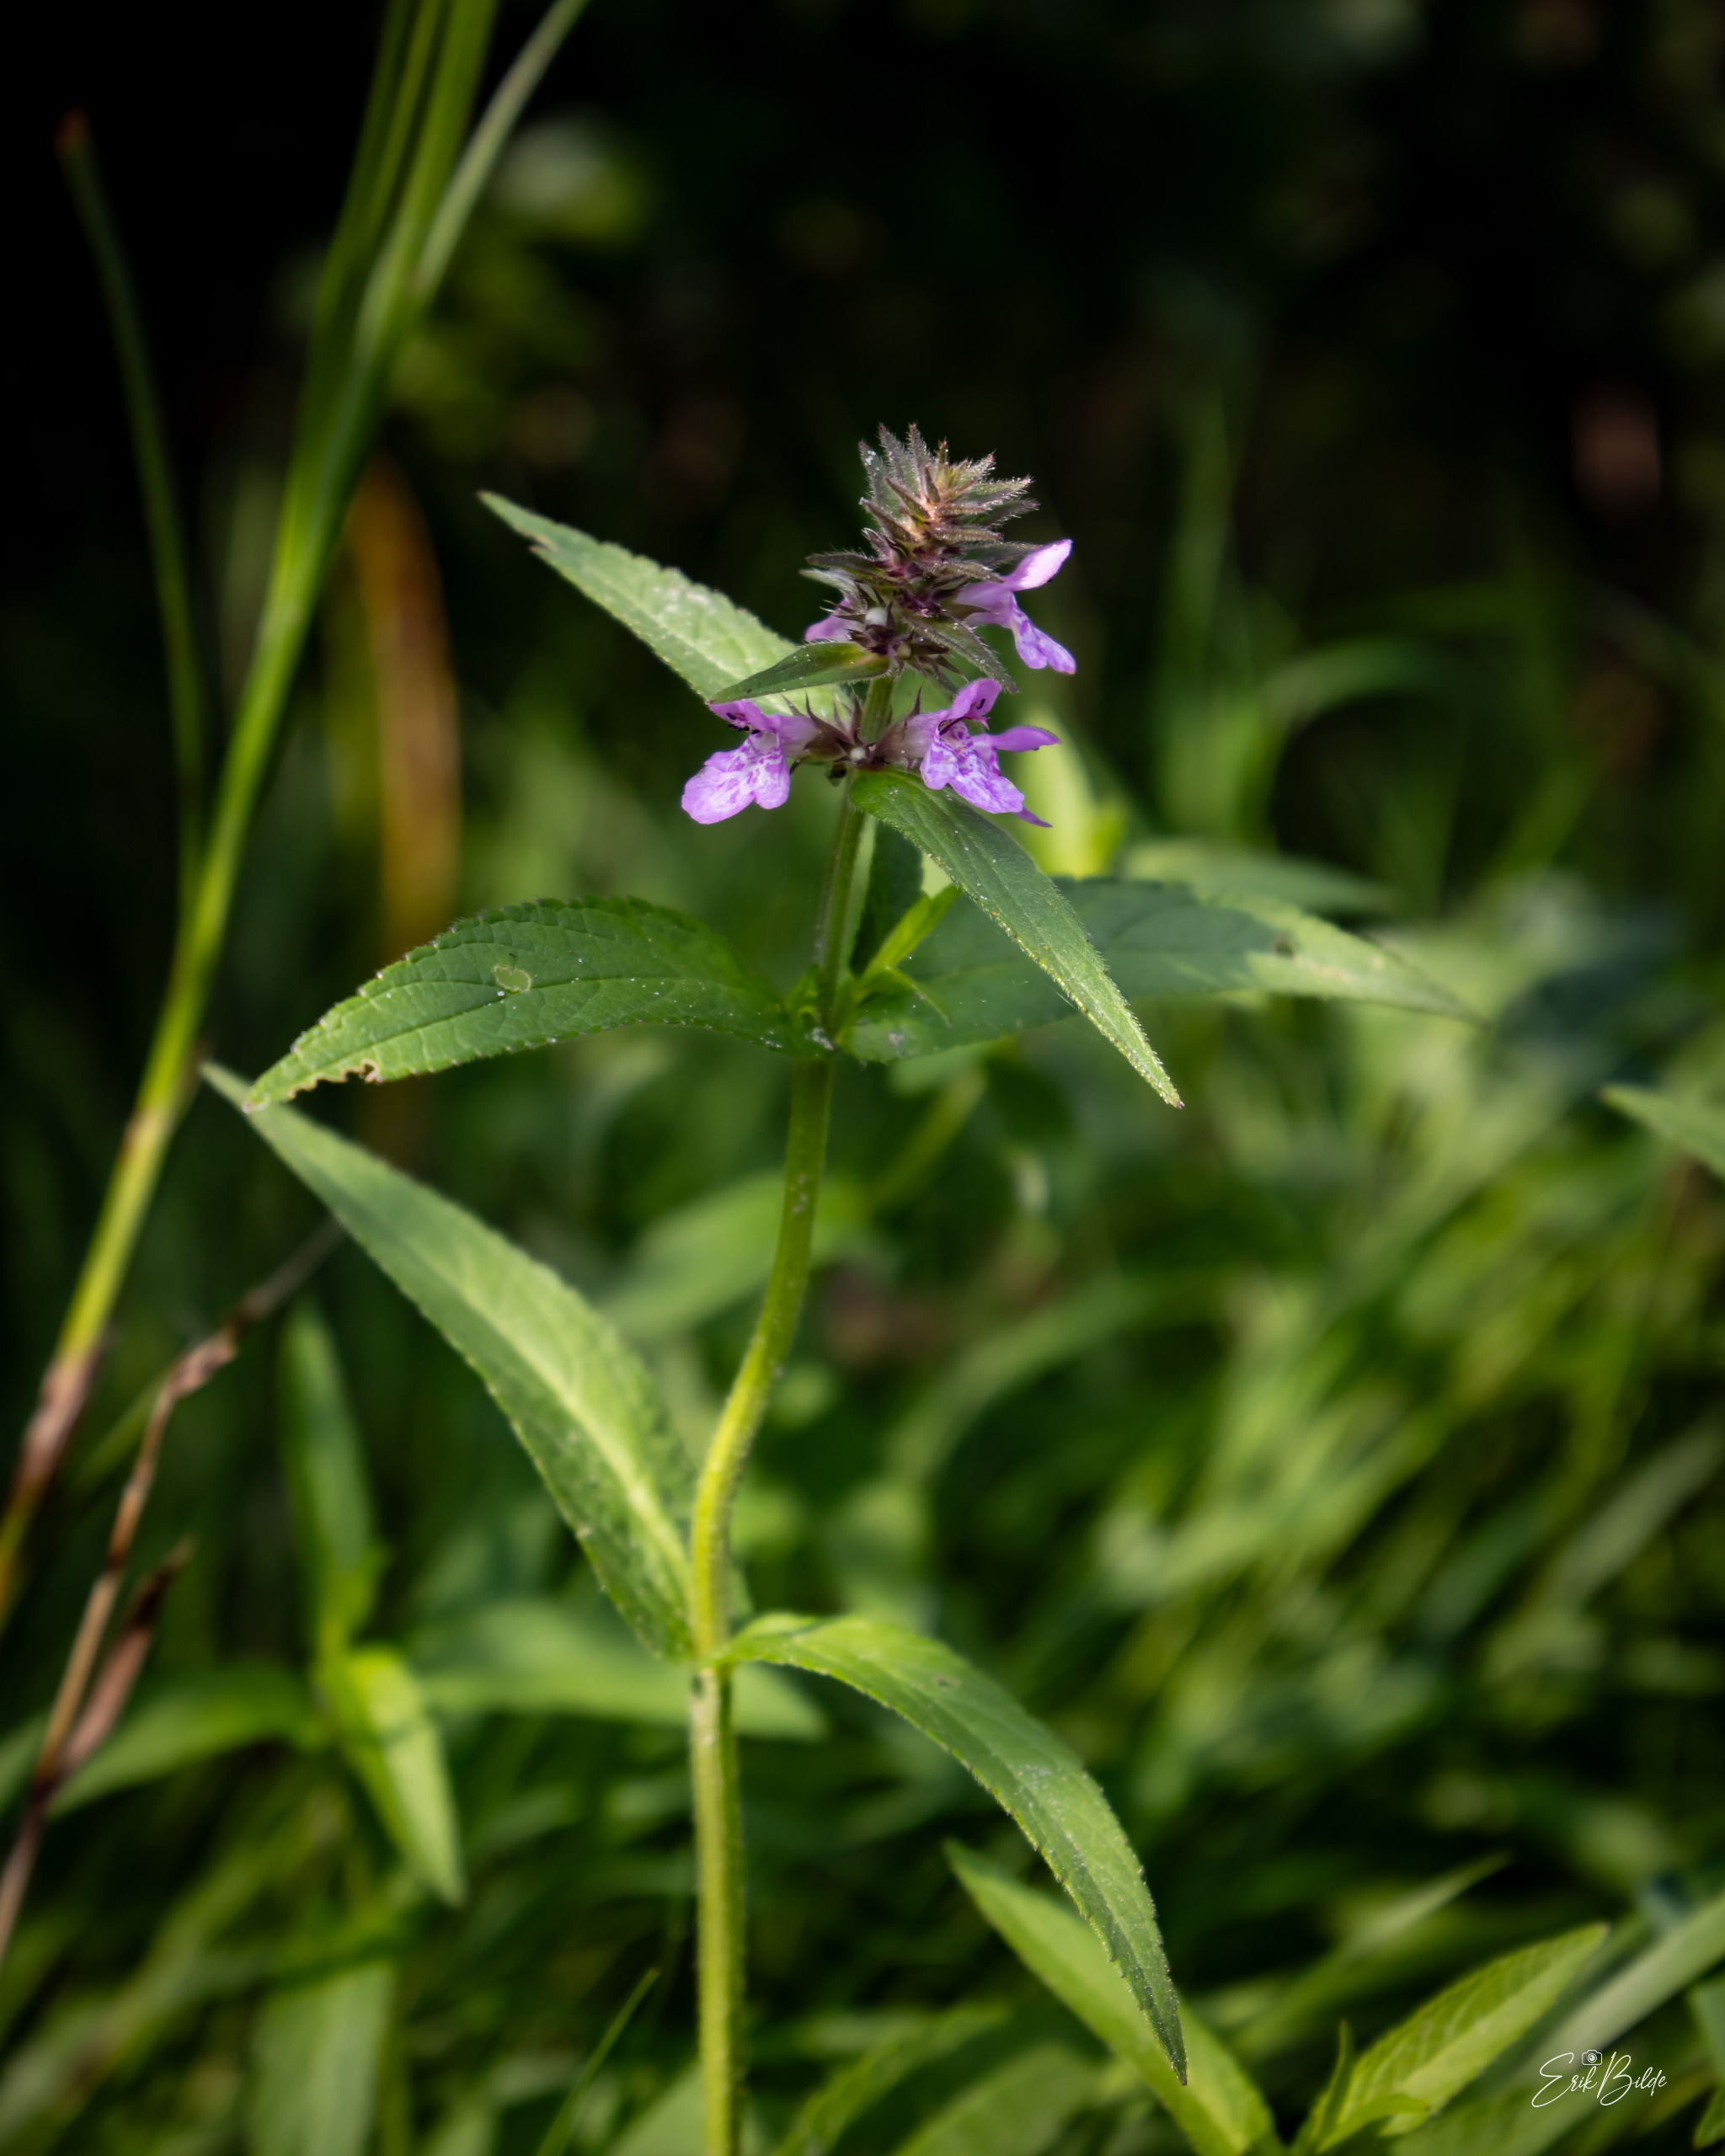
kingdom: Plantae
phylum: Tracheophyta
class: Magnoliopsida
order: Lamiales
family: Lamiaceae
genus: Stachys
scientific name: Stachys palustris
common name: Kær-galtetand
